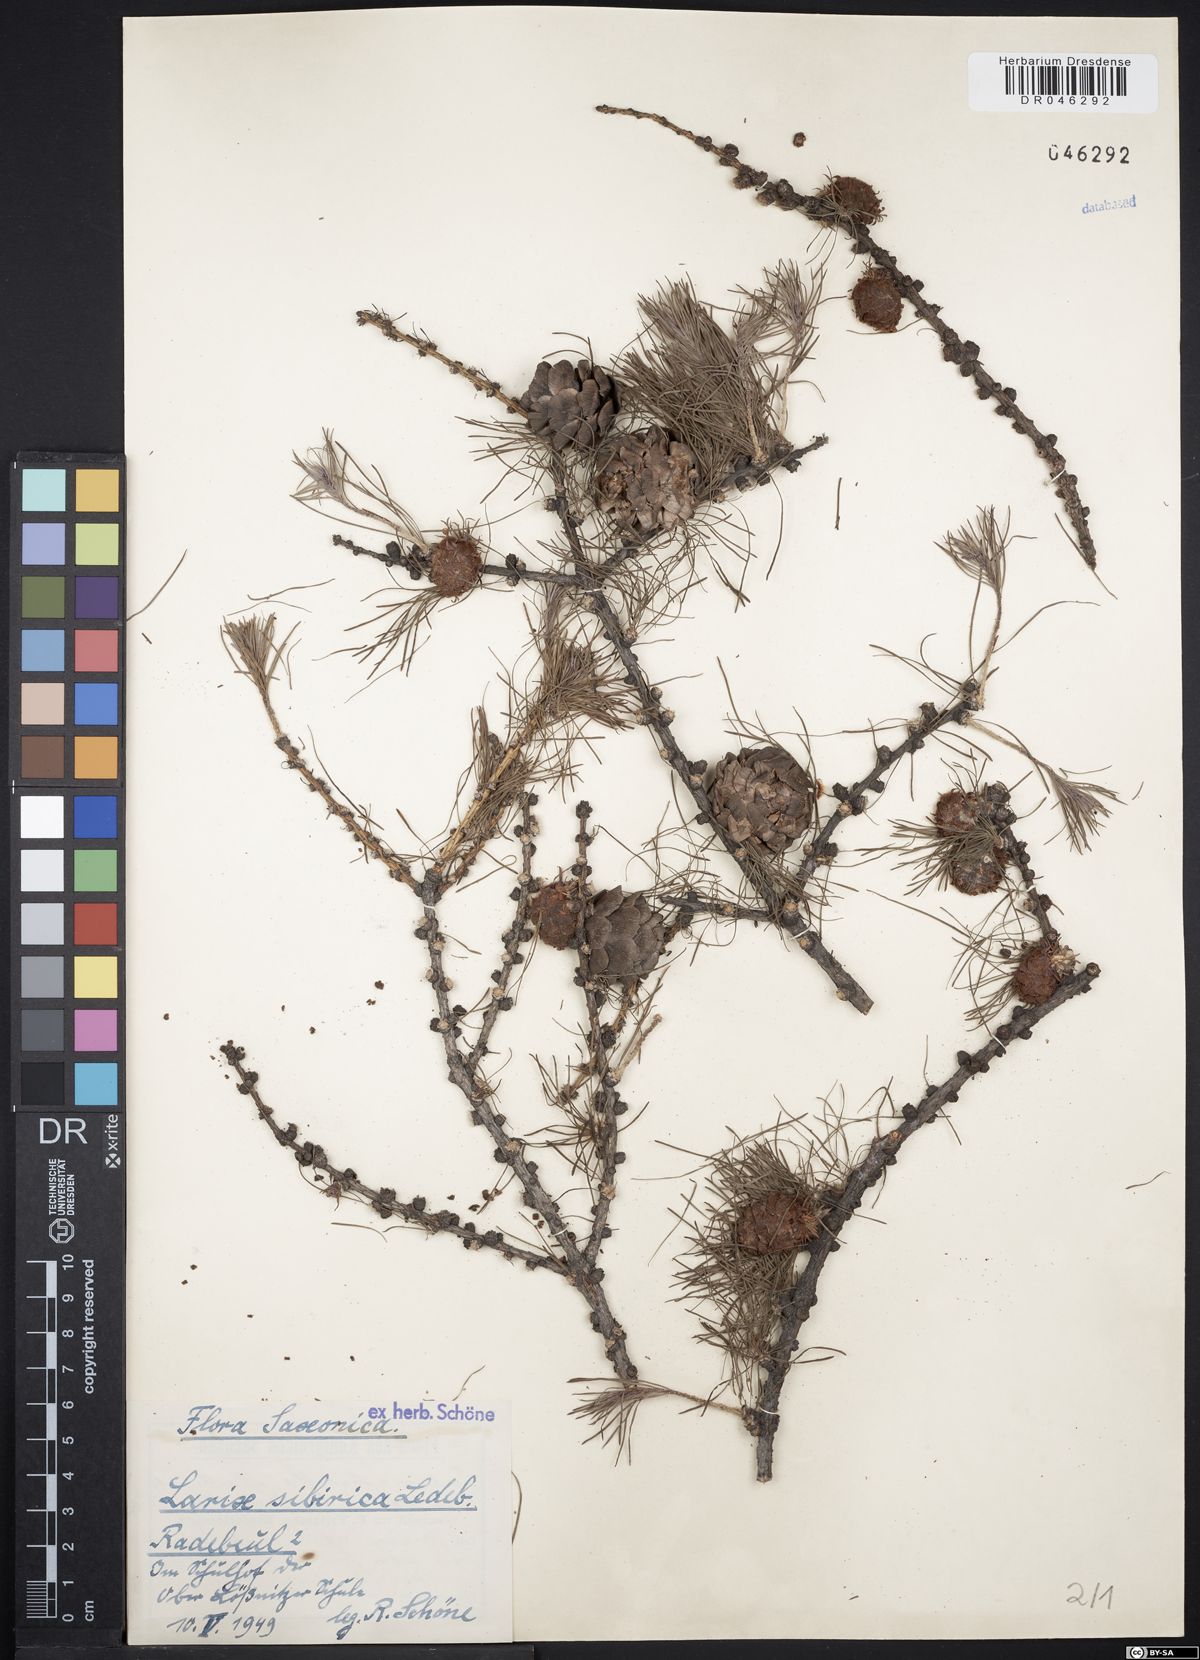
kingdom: Plantae
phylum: Tracheophyta
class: Pinopsida
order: Pinales
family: Pinaceae
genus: Larix
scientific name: Larix sibirica
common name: Siberian larch
